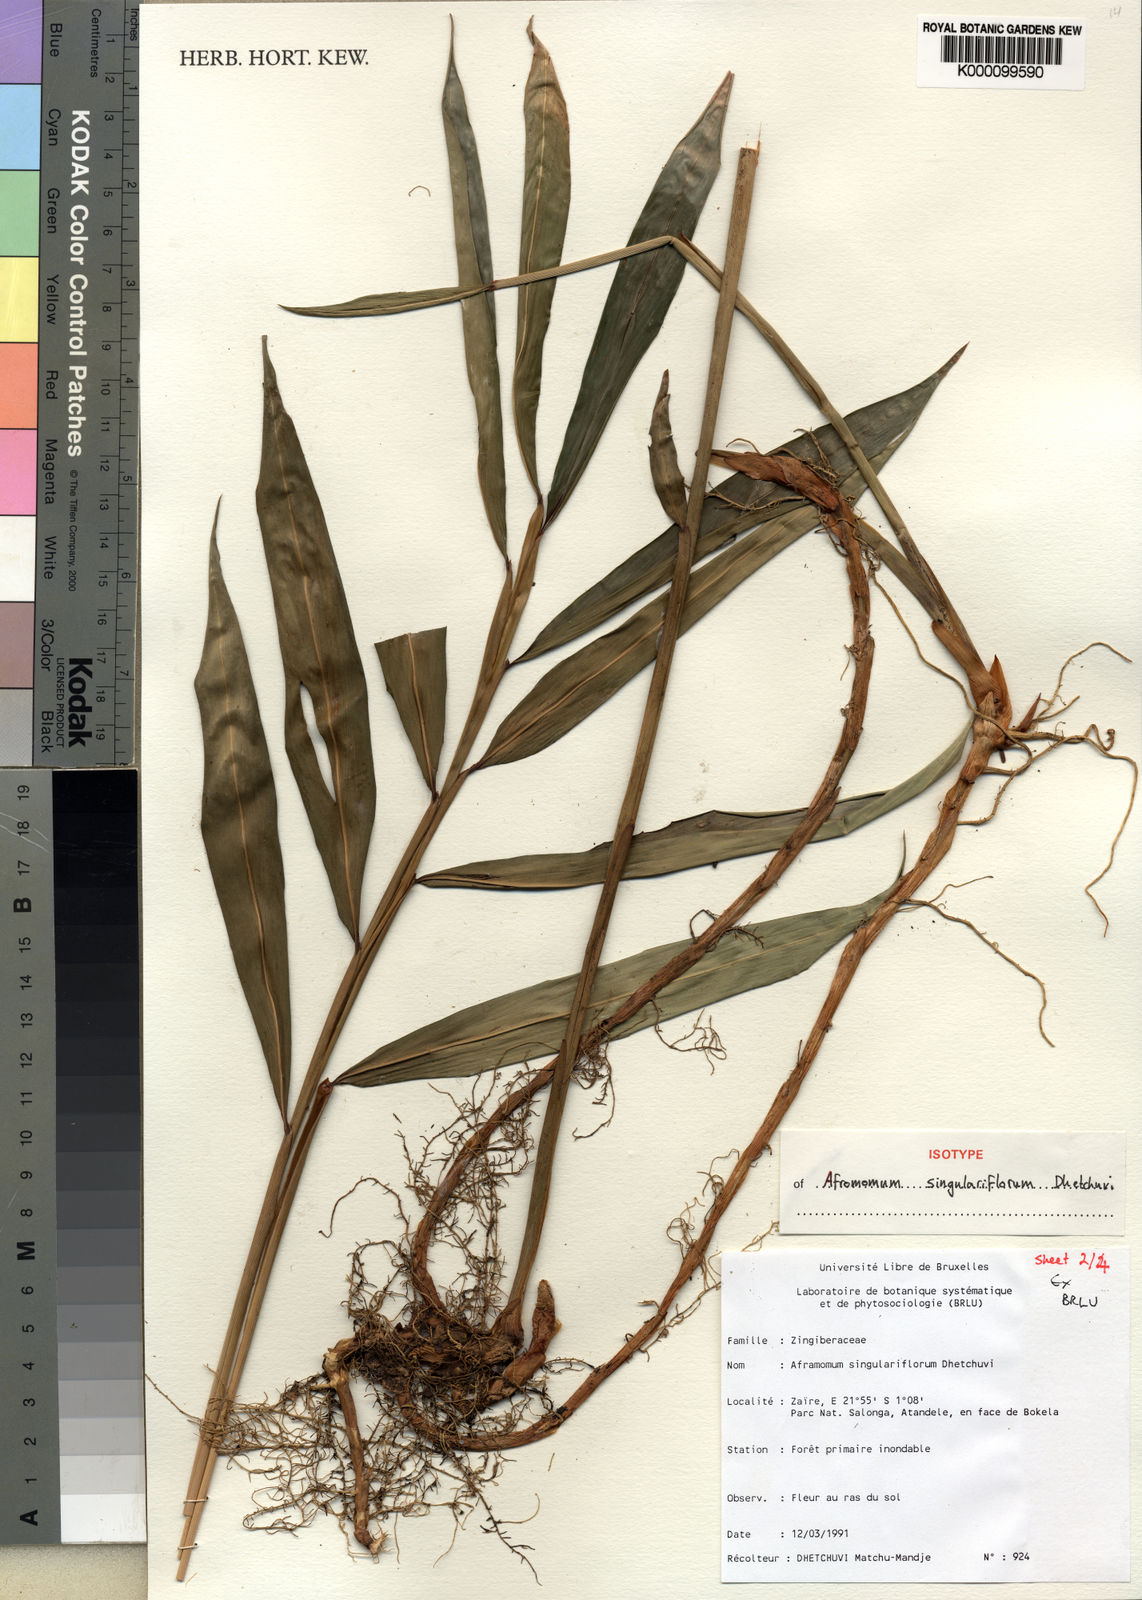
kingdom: Plantae
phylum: Tracheophyta
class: Liliopsida
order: Zingiberales
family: Zingiberaceae
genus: Aframomum
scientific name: Aframomum singulariflorum
